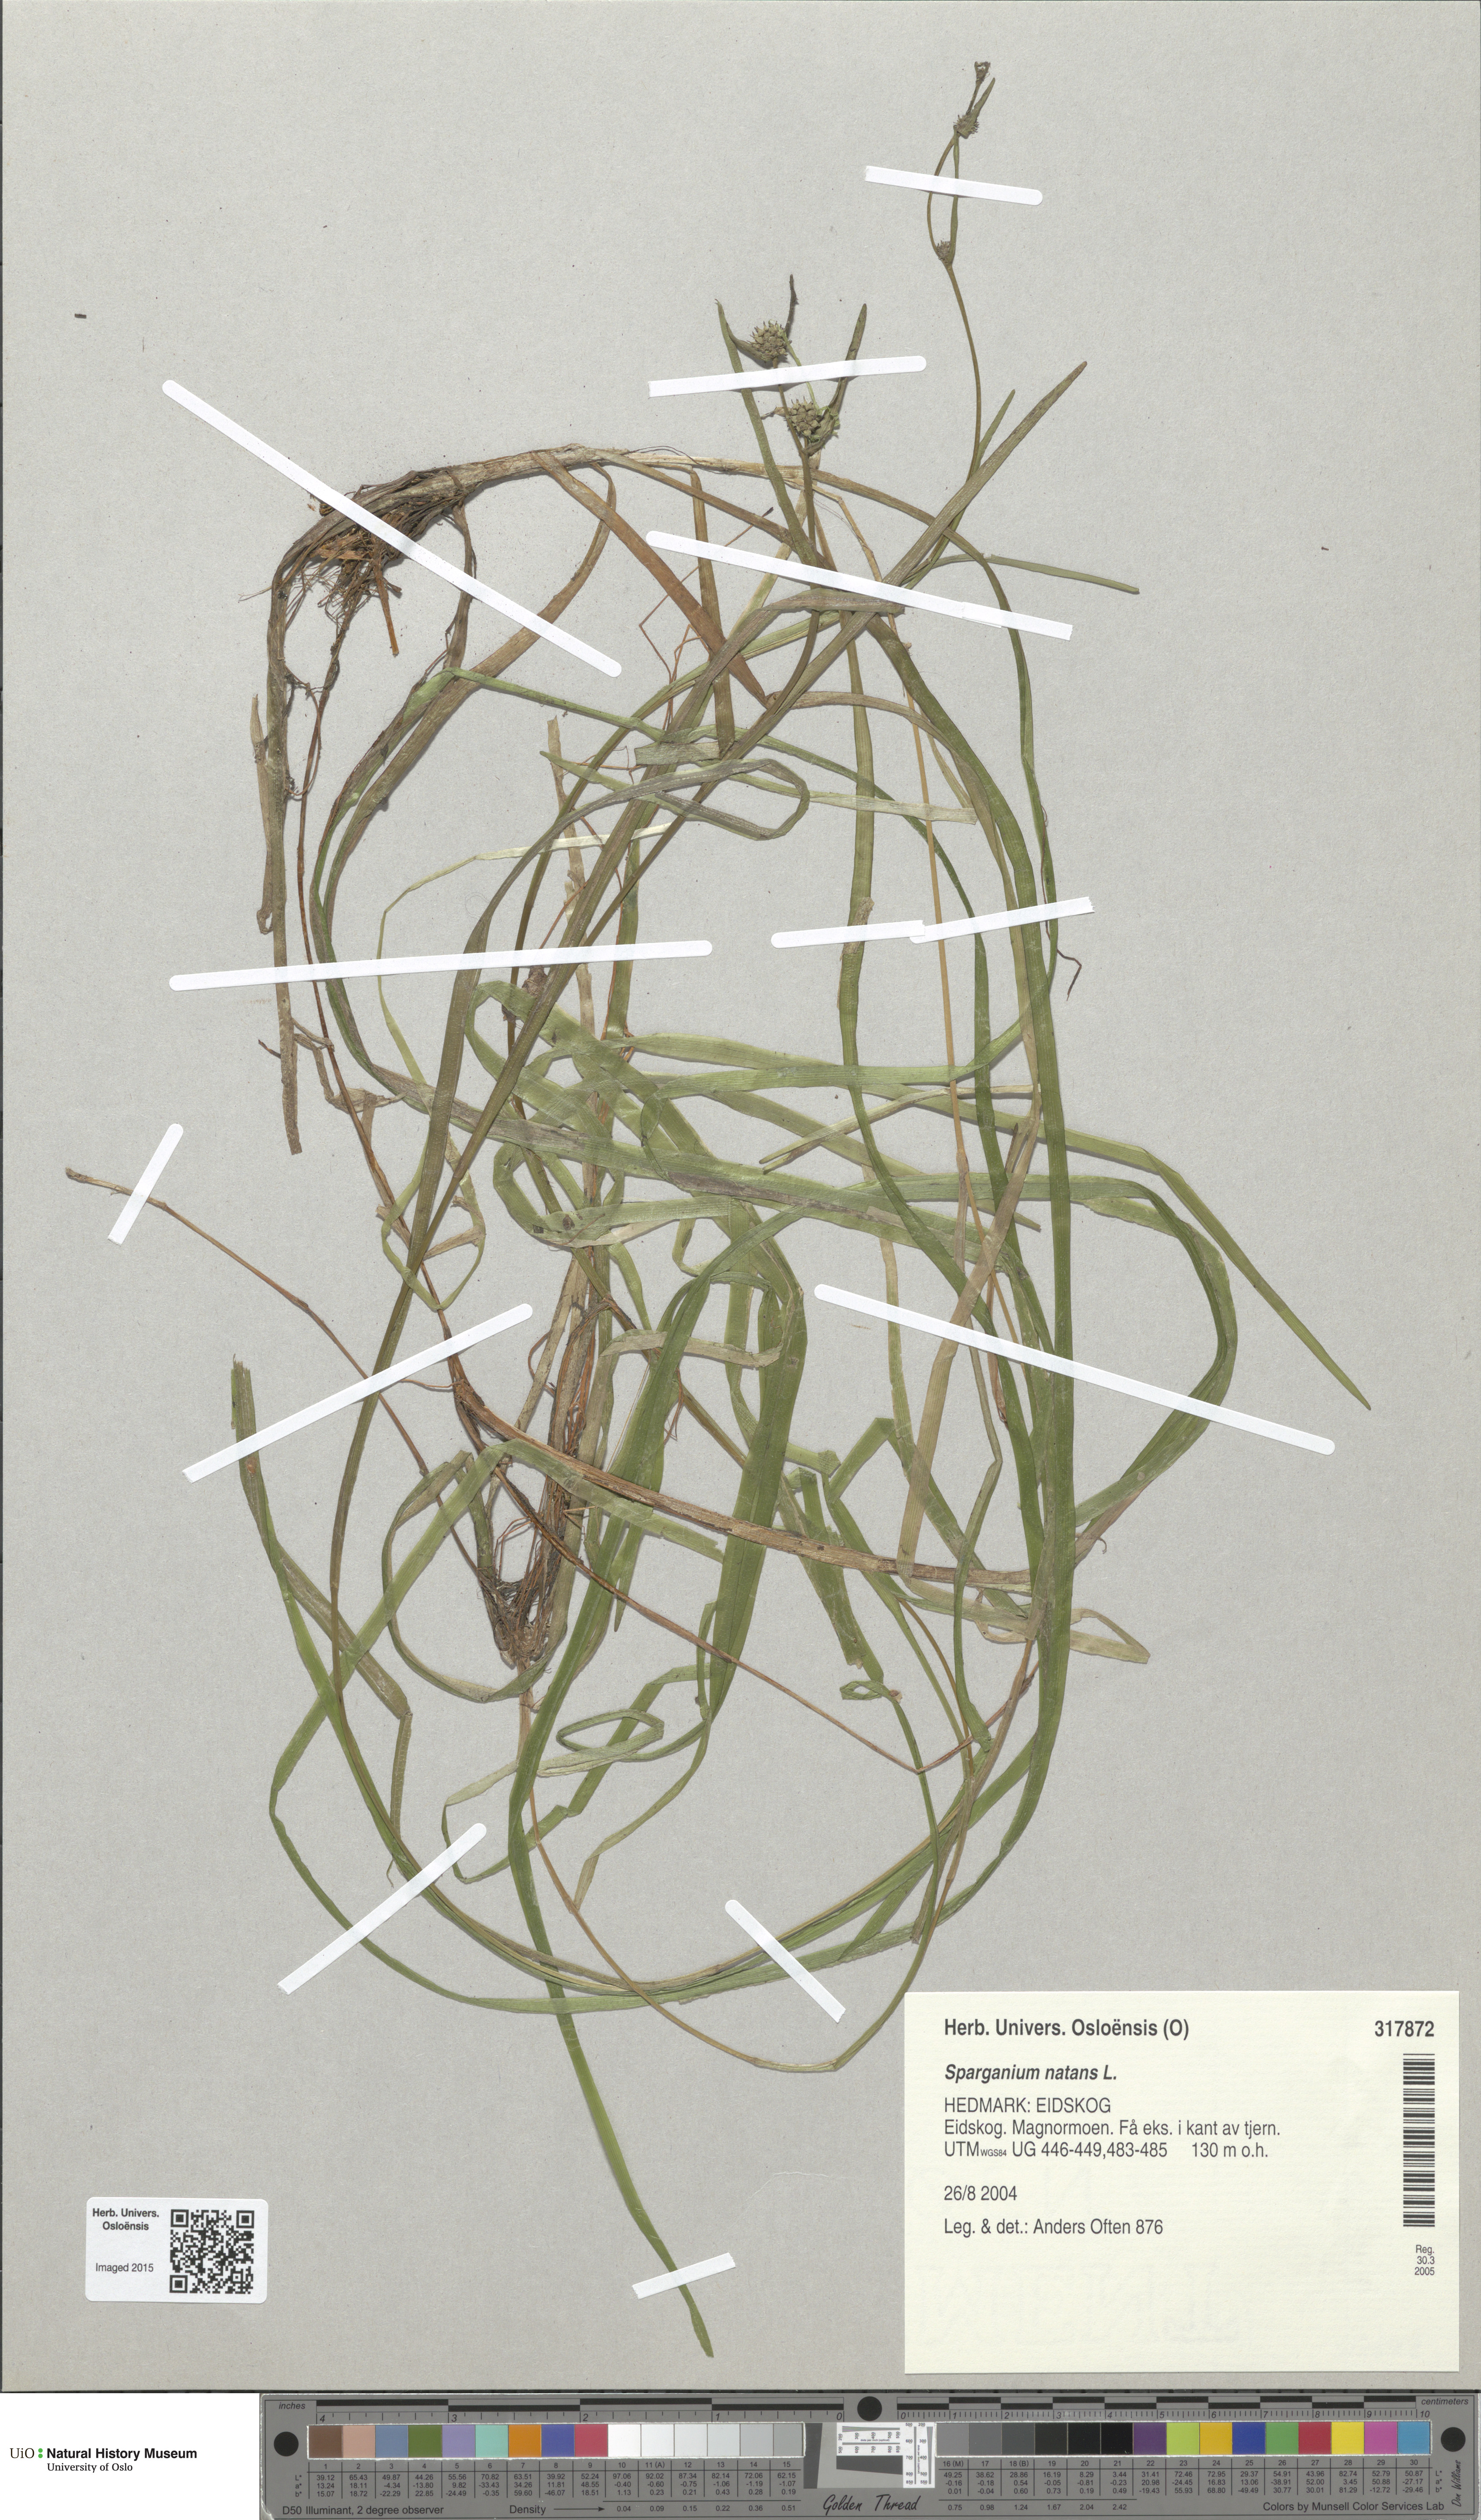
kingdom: Plantae
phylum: Tracheophyta
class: Liliopsida
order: Poales
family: Typhaceae
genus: Sparganium
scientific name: Sparganium natans
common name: Least bur-reed
